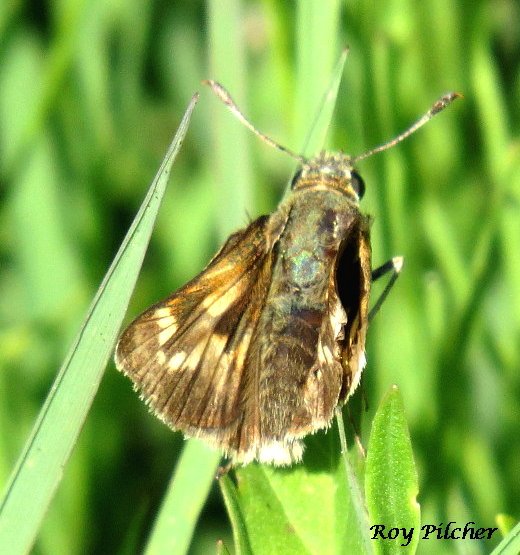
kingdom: Animalia
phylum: Arthropoda
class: Insecta
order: Lepidoptera
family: Hesperiidae
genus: Polites
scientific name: Polites
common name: Long Dash Skipper
